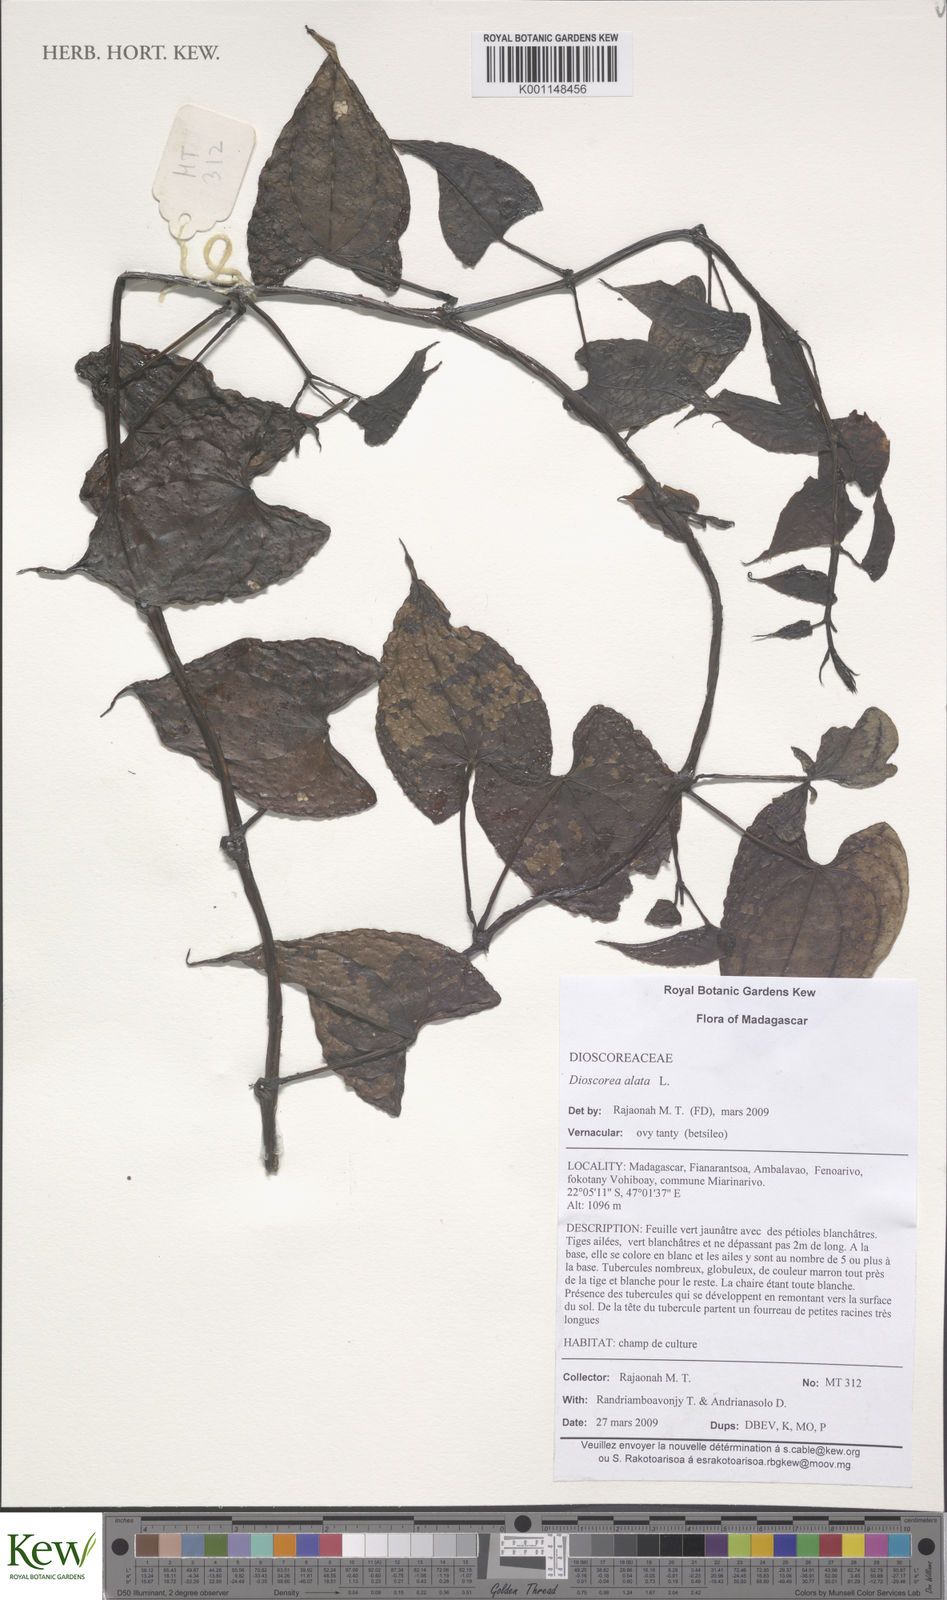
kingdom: Plantae
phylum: Tracheophyta
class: Liliopsida
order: Dioscoreales
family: Dioscoreaceae
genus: Dioscorea
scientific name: Dioscorea alata
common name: Water yam
